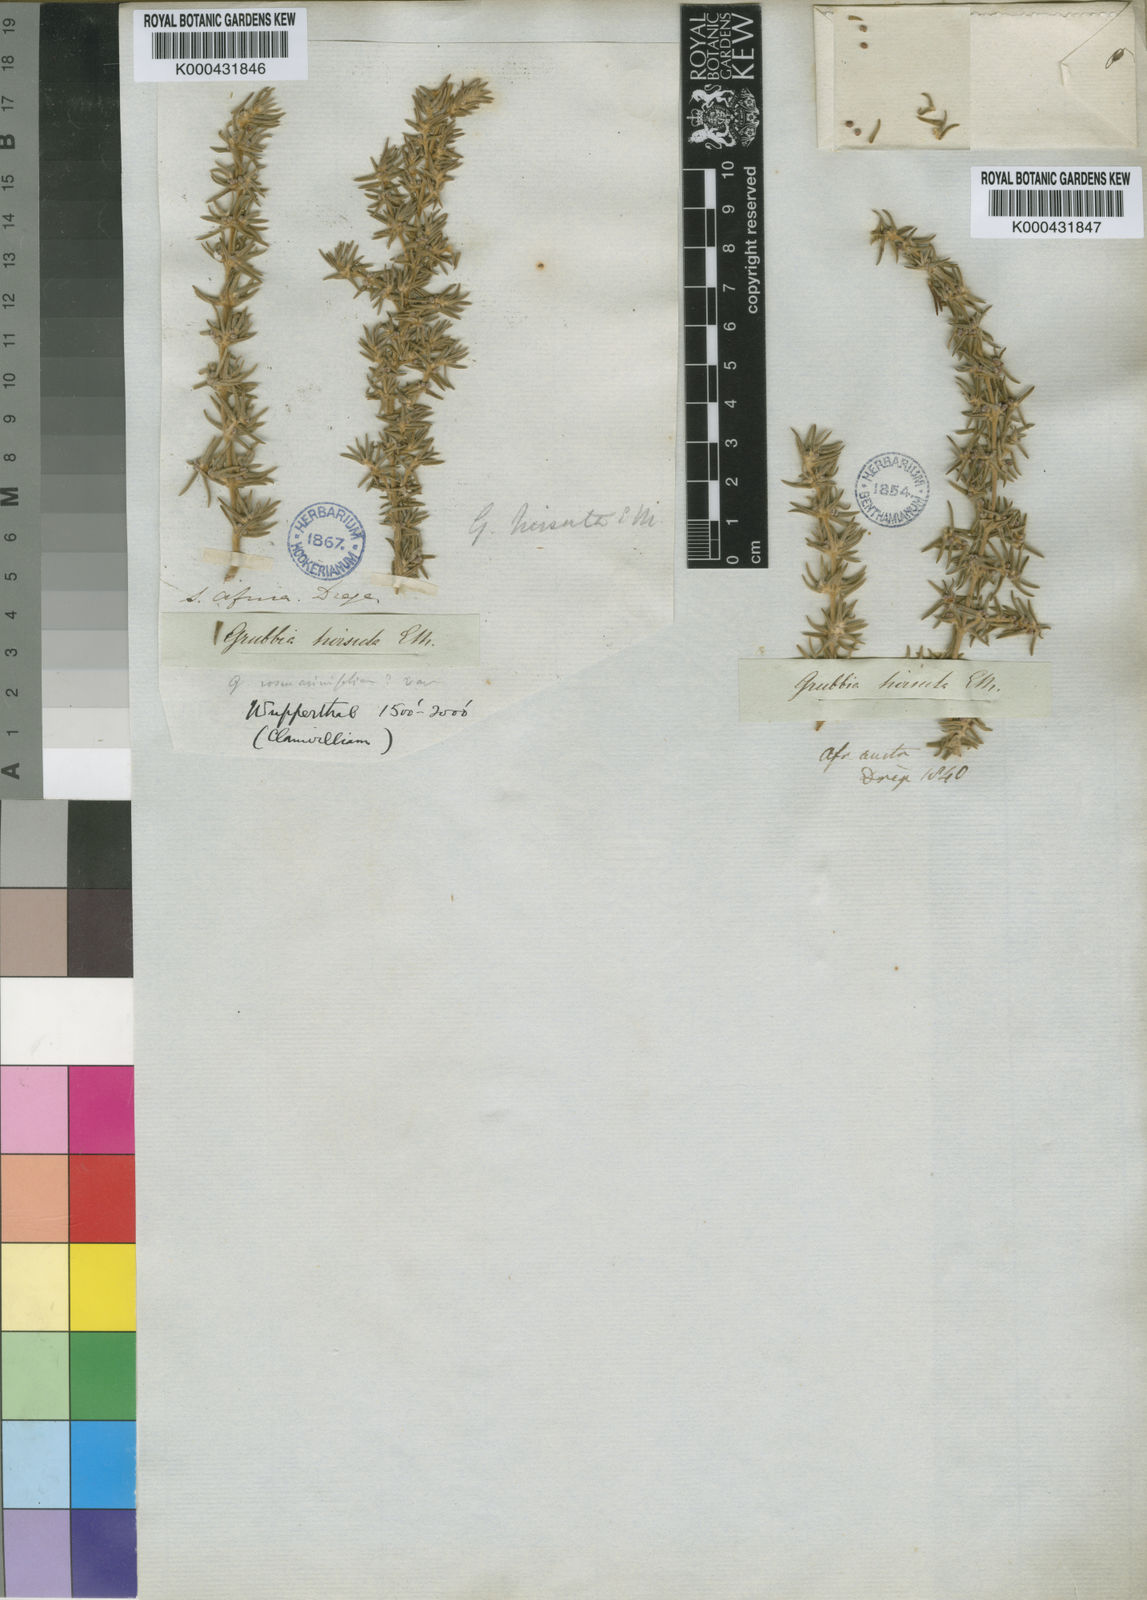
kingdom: Plantae
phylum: Tracheophyta
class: Magnoliopsida
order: Cornales
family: Grubbiaceae
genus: Grubbia
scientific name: Grubbia rosmarinifolia
